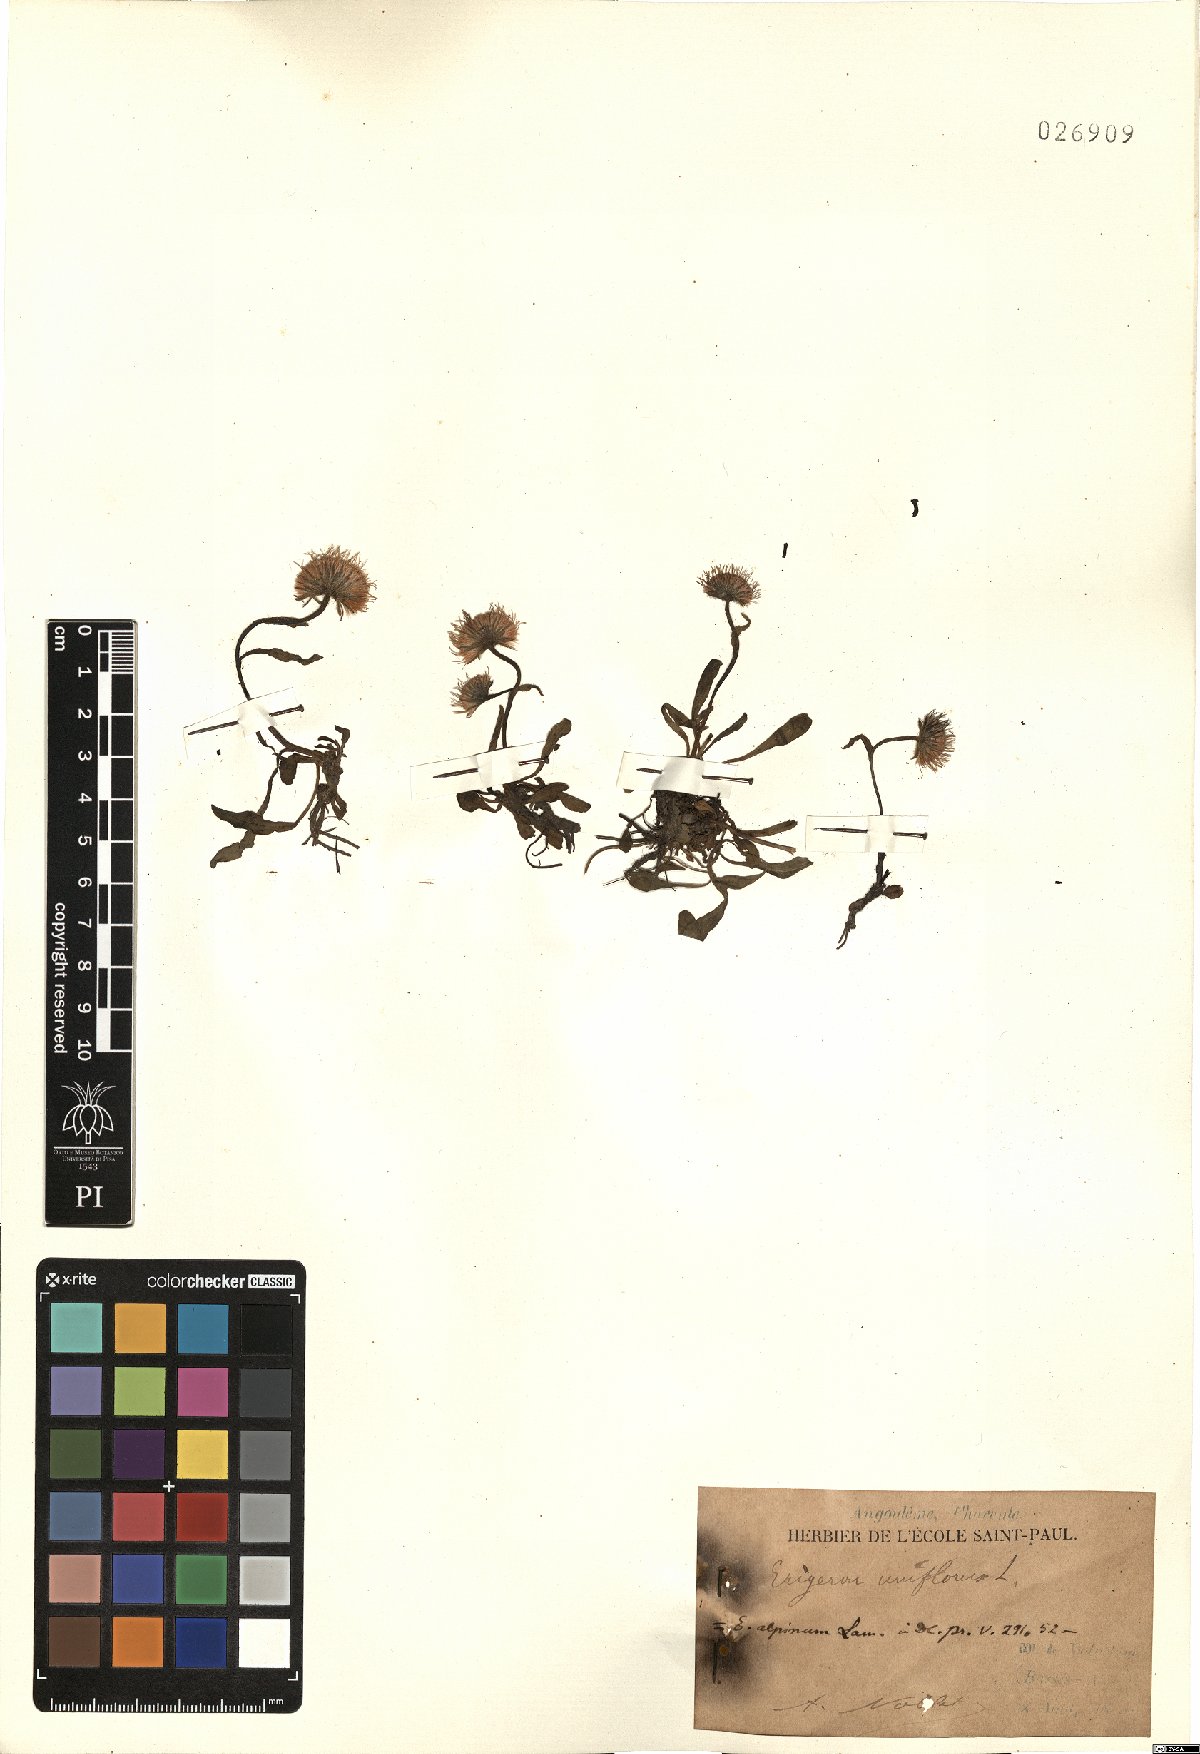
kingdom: Plantae
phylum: Tracheophyta
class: Magnoliopsida
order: Asterales
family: Asteraceae
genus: Erigeron
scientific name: Erigeron uniflorus
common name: Northern daisy
